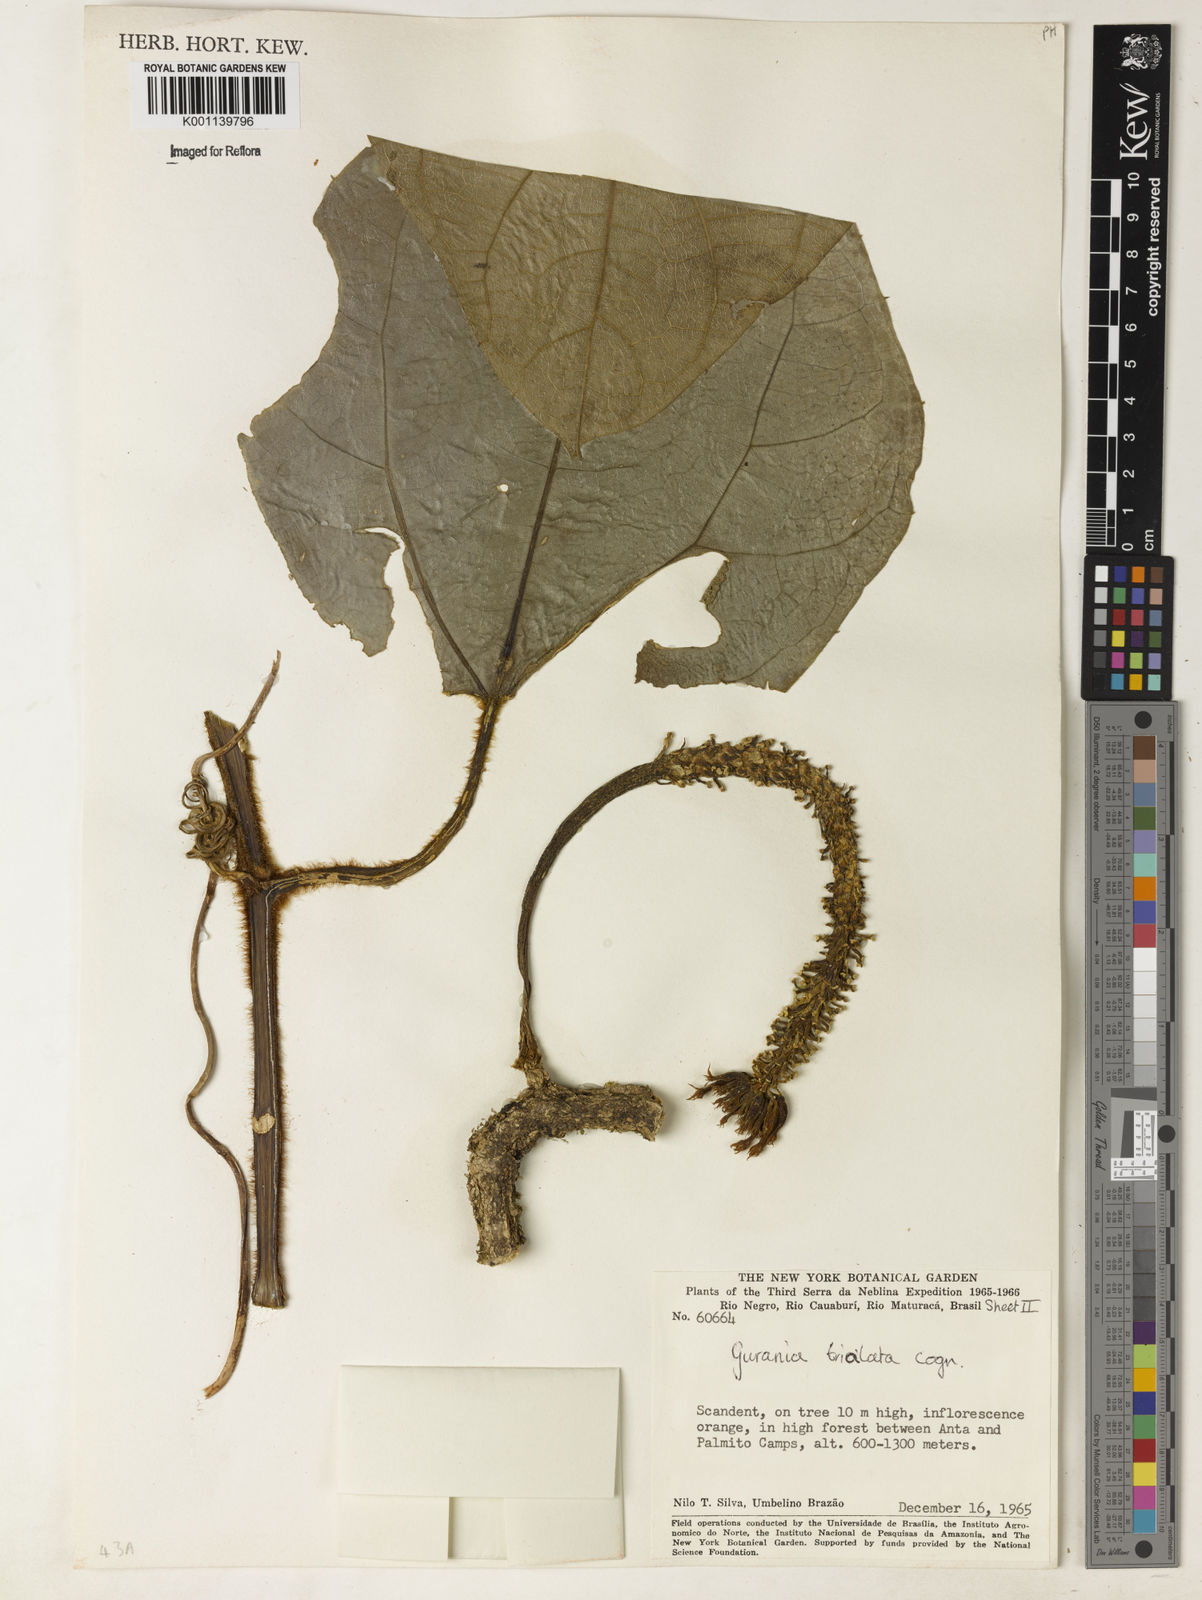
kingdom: Plantae
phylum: Tracheophyta
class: Magnoliopsida
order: Cucurbitales
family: Cucurbitaceae
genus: Gurania
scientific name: Gurania trialata
